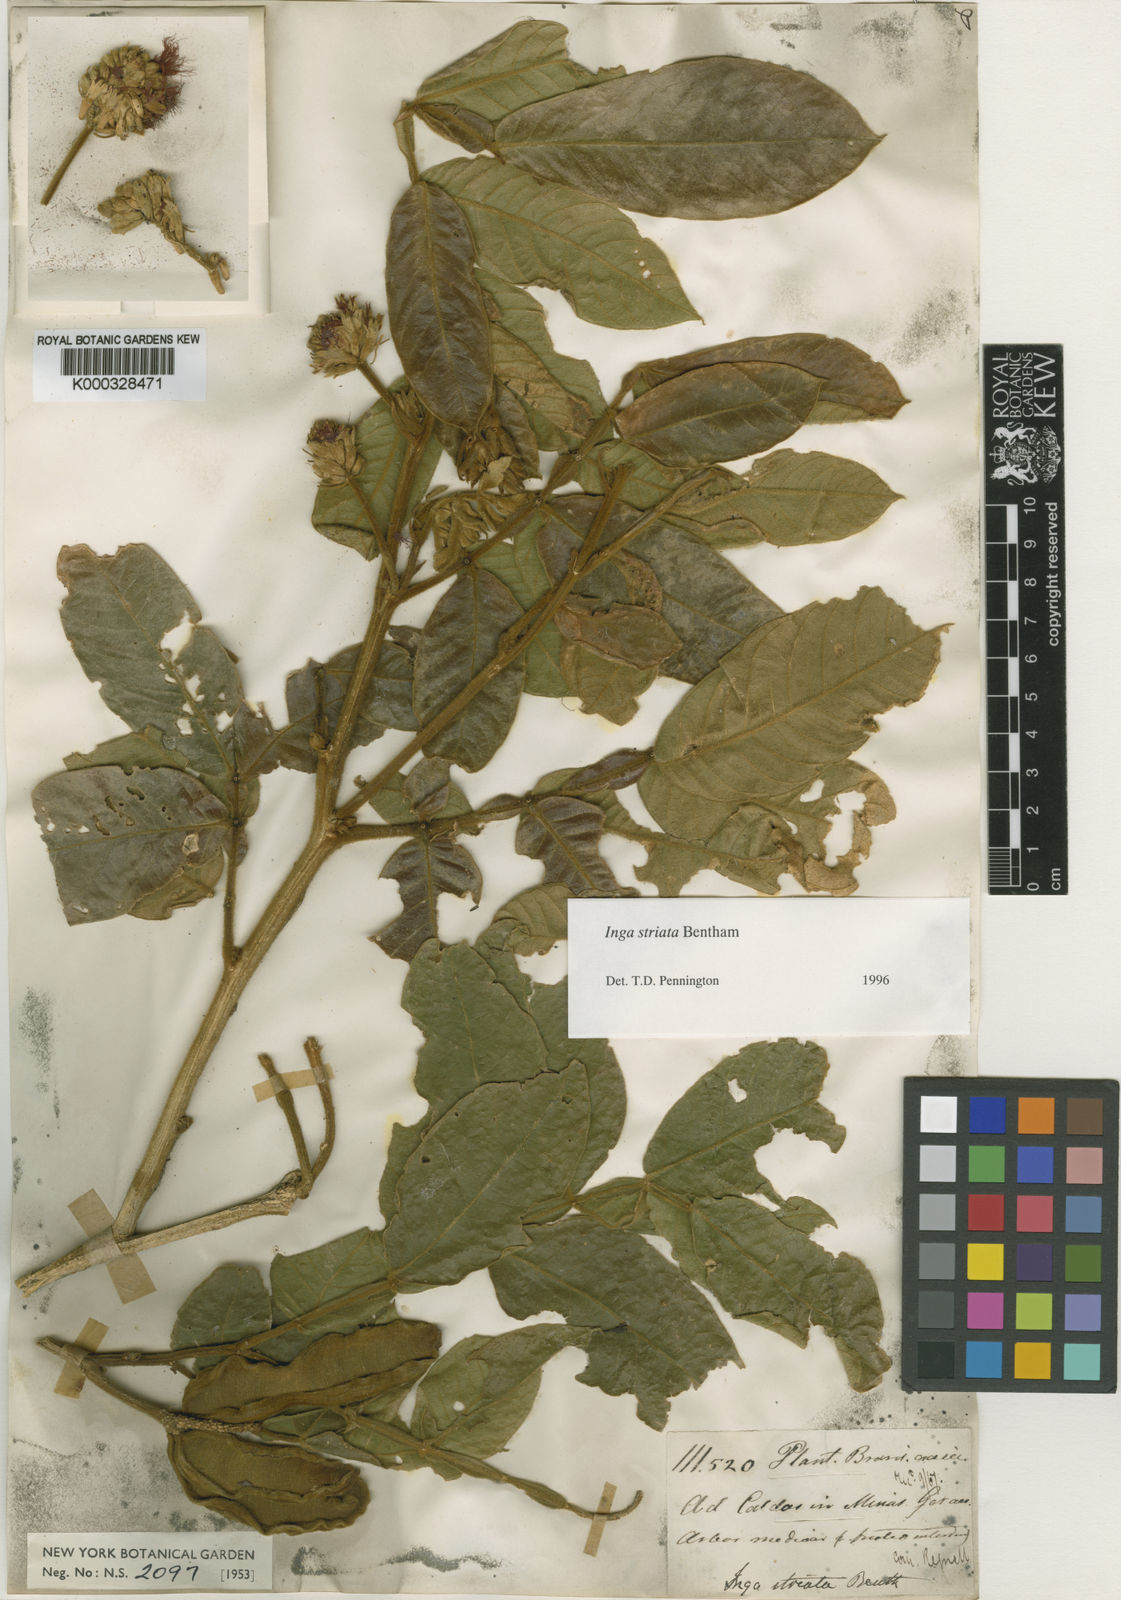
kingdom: Plantae
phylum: Tracheophyta
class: Magnoliopsida
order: Fabales
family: Fabaceae
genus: Inga
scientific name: Inga striata
